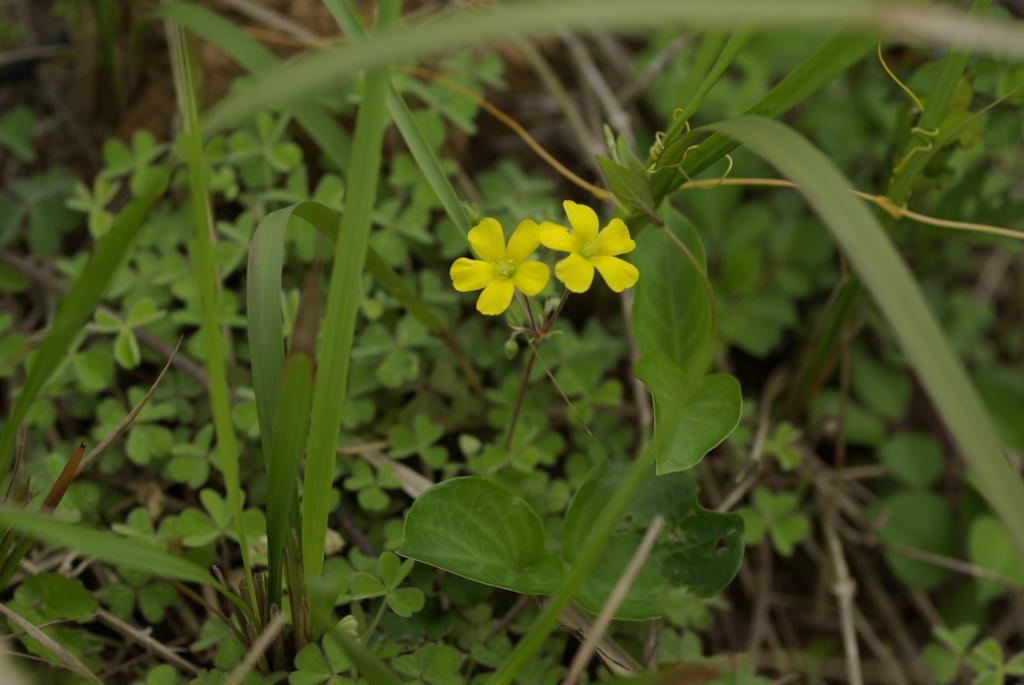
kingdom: Plantae
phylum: Tracheophyta
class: Magnoliopsida
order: Oxalidales
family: Oxalidaceae
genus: Oxalis
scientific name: Oxalis corniculata
